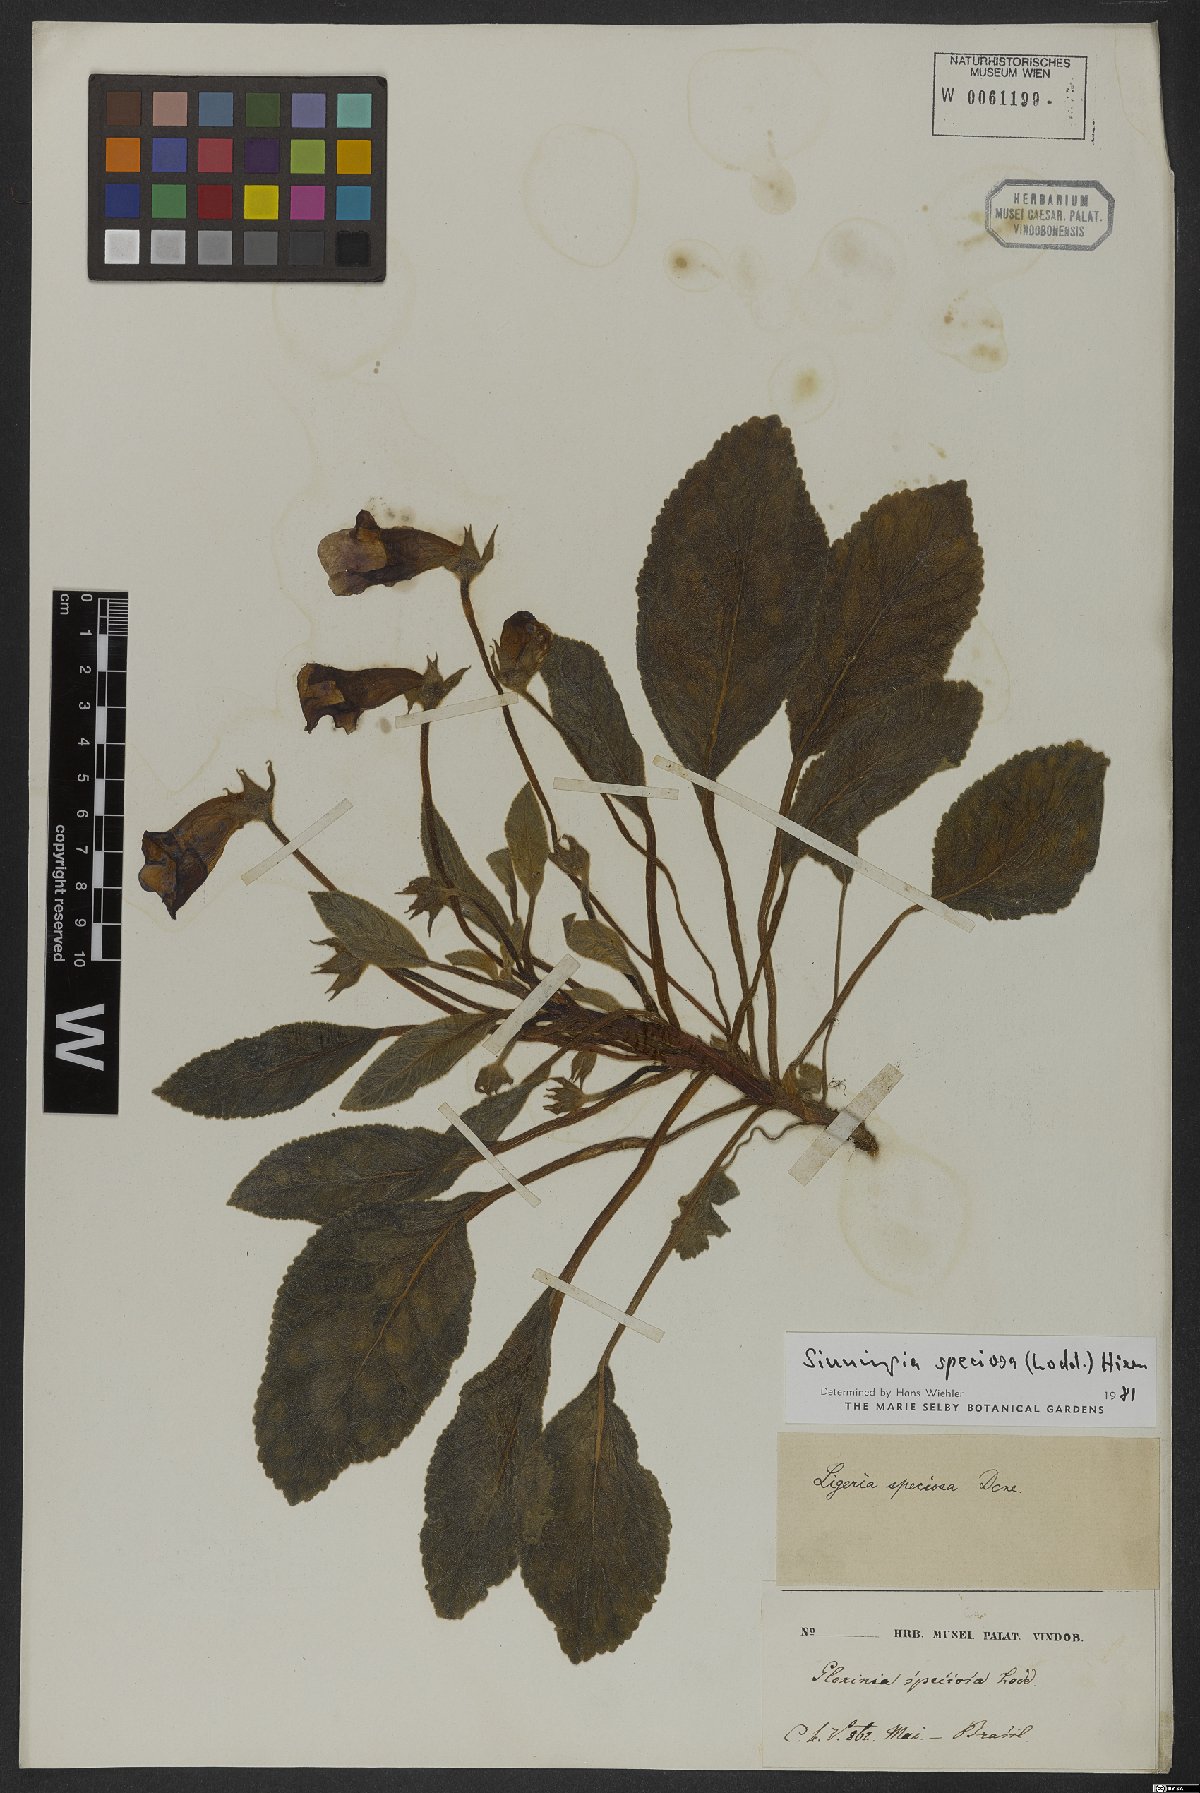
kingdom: Plantae
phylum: Tracheophyta
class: Magnoliopsida
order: Lamiales
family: Gesneriaceae
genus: Sinningia
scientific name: Sinningia speciosa
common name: Brazilian gloxinia
